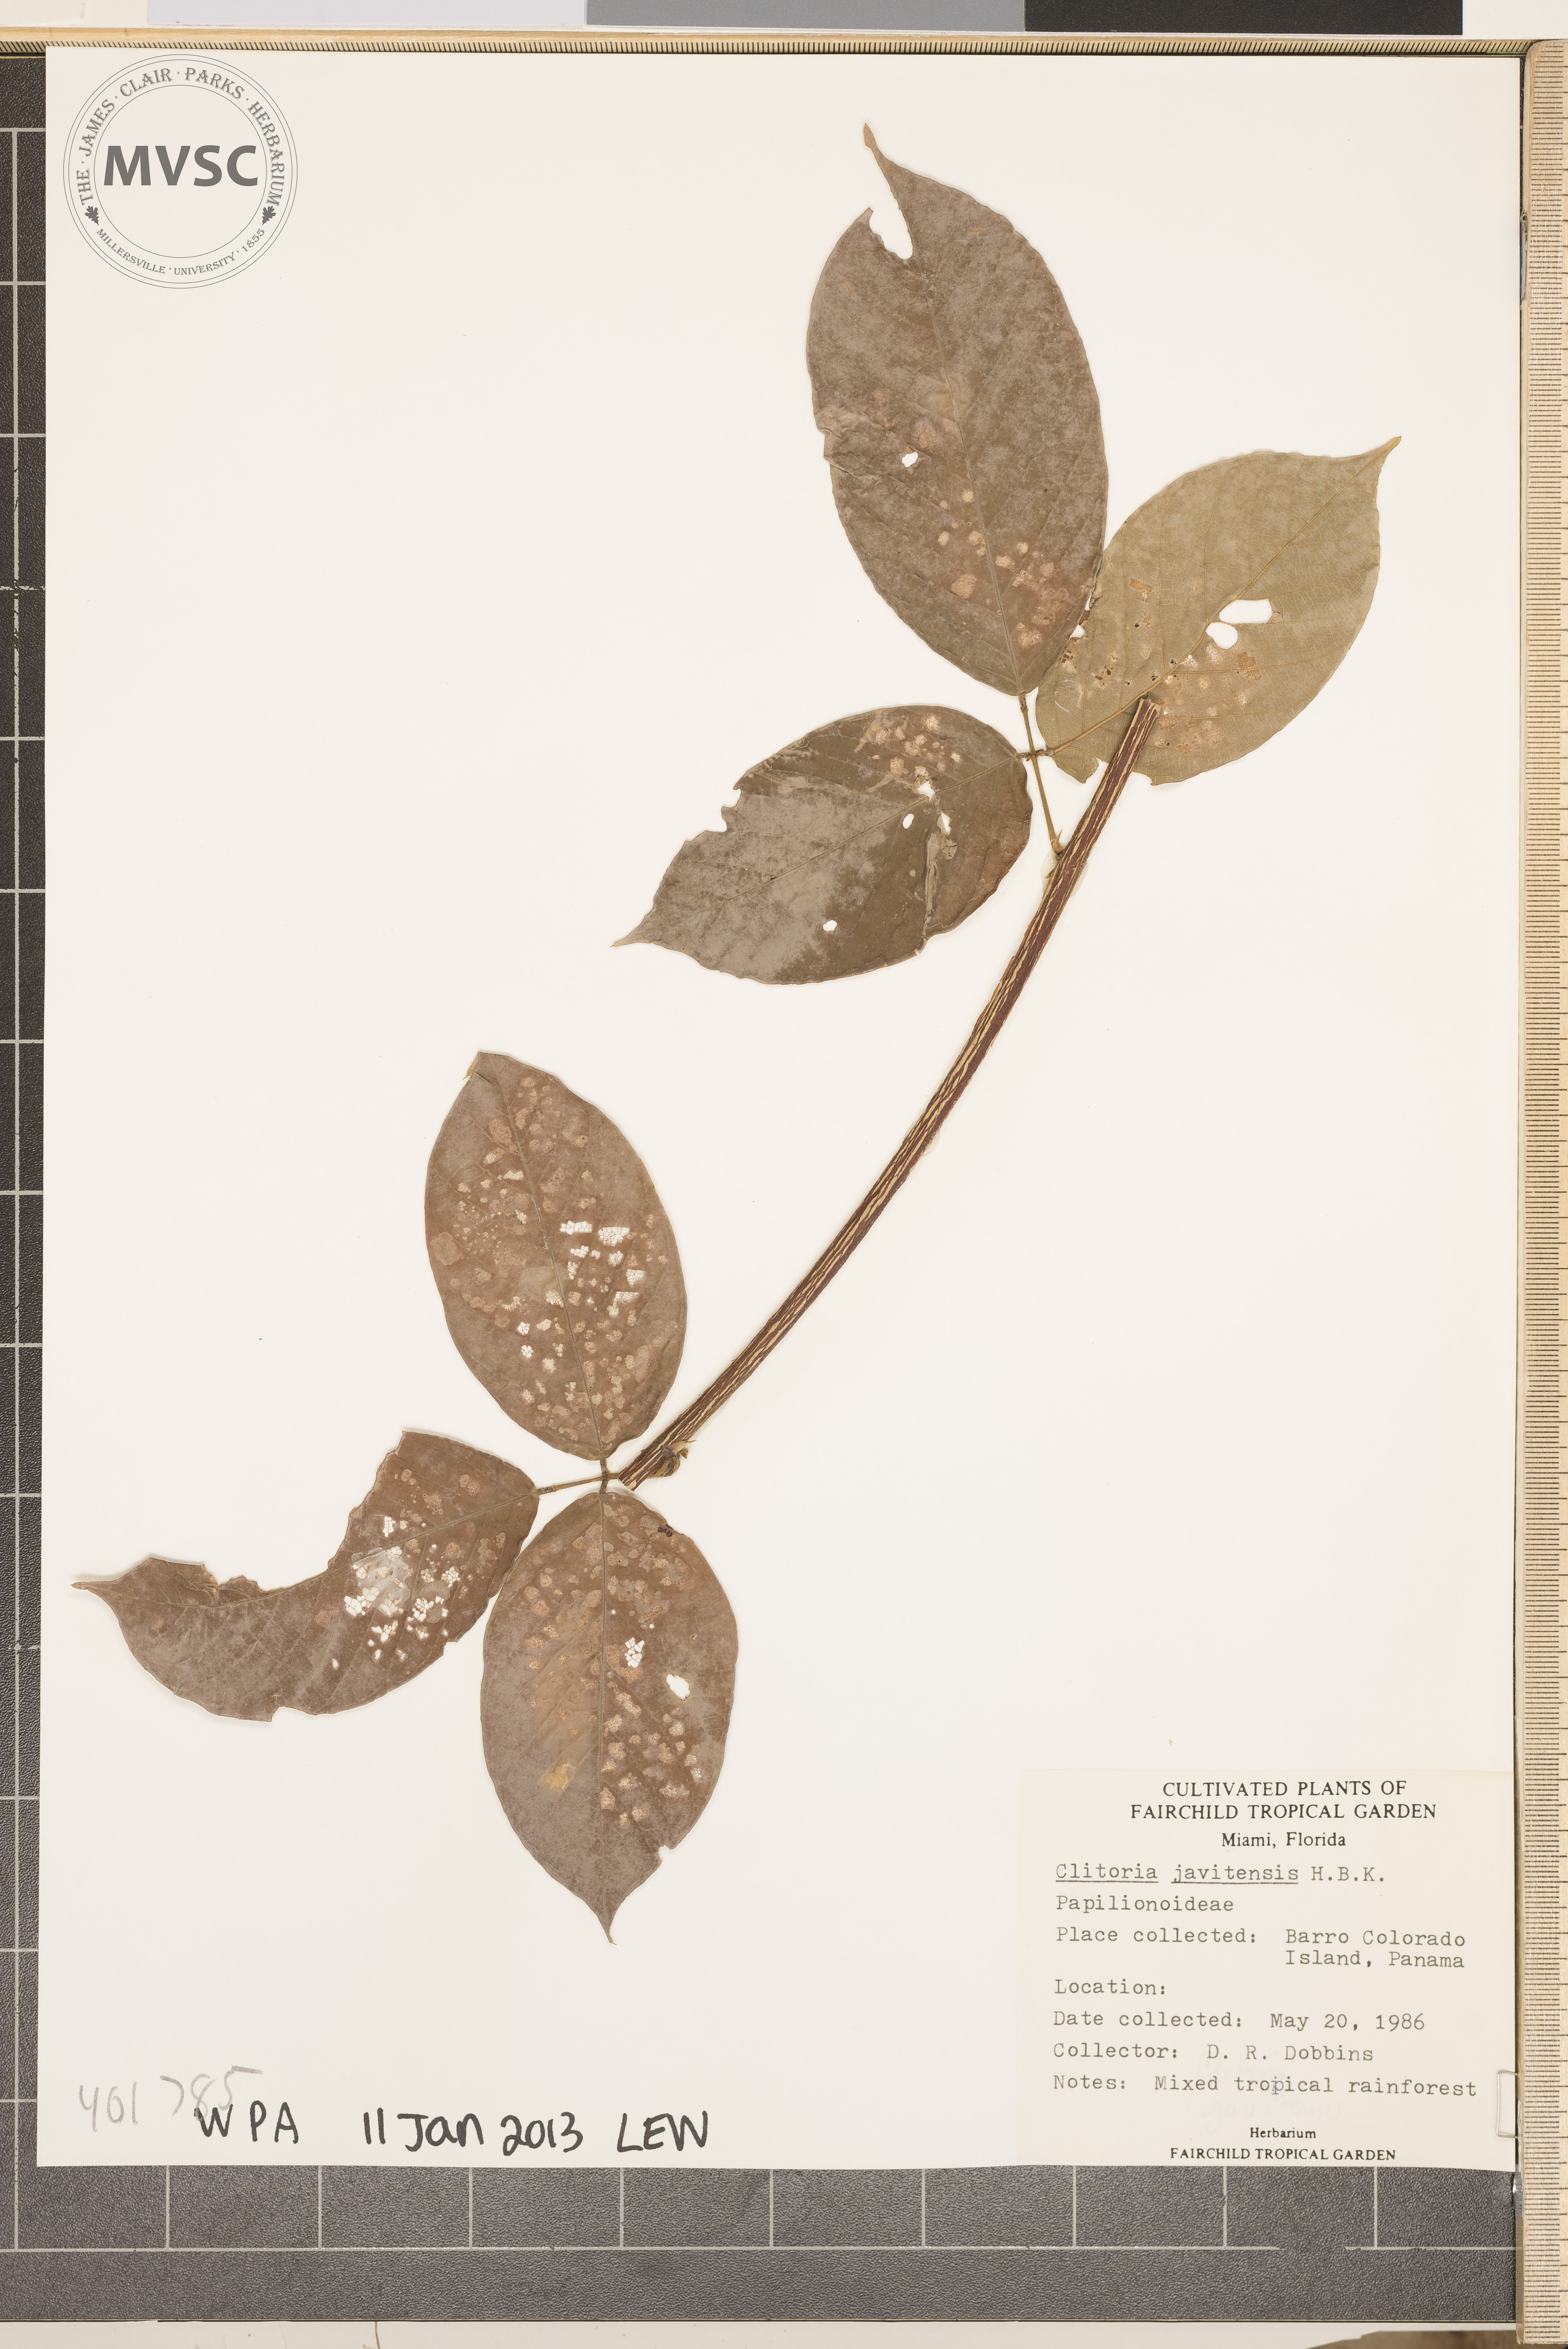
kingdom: Plantae
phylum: Tracheophyta
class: Magnoliopsida
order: Fabales
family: Fabaceae
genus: Clitoria
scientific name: Clitoria javitensis
